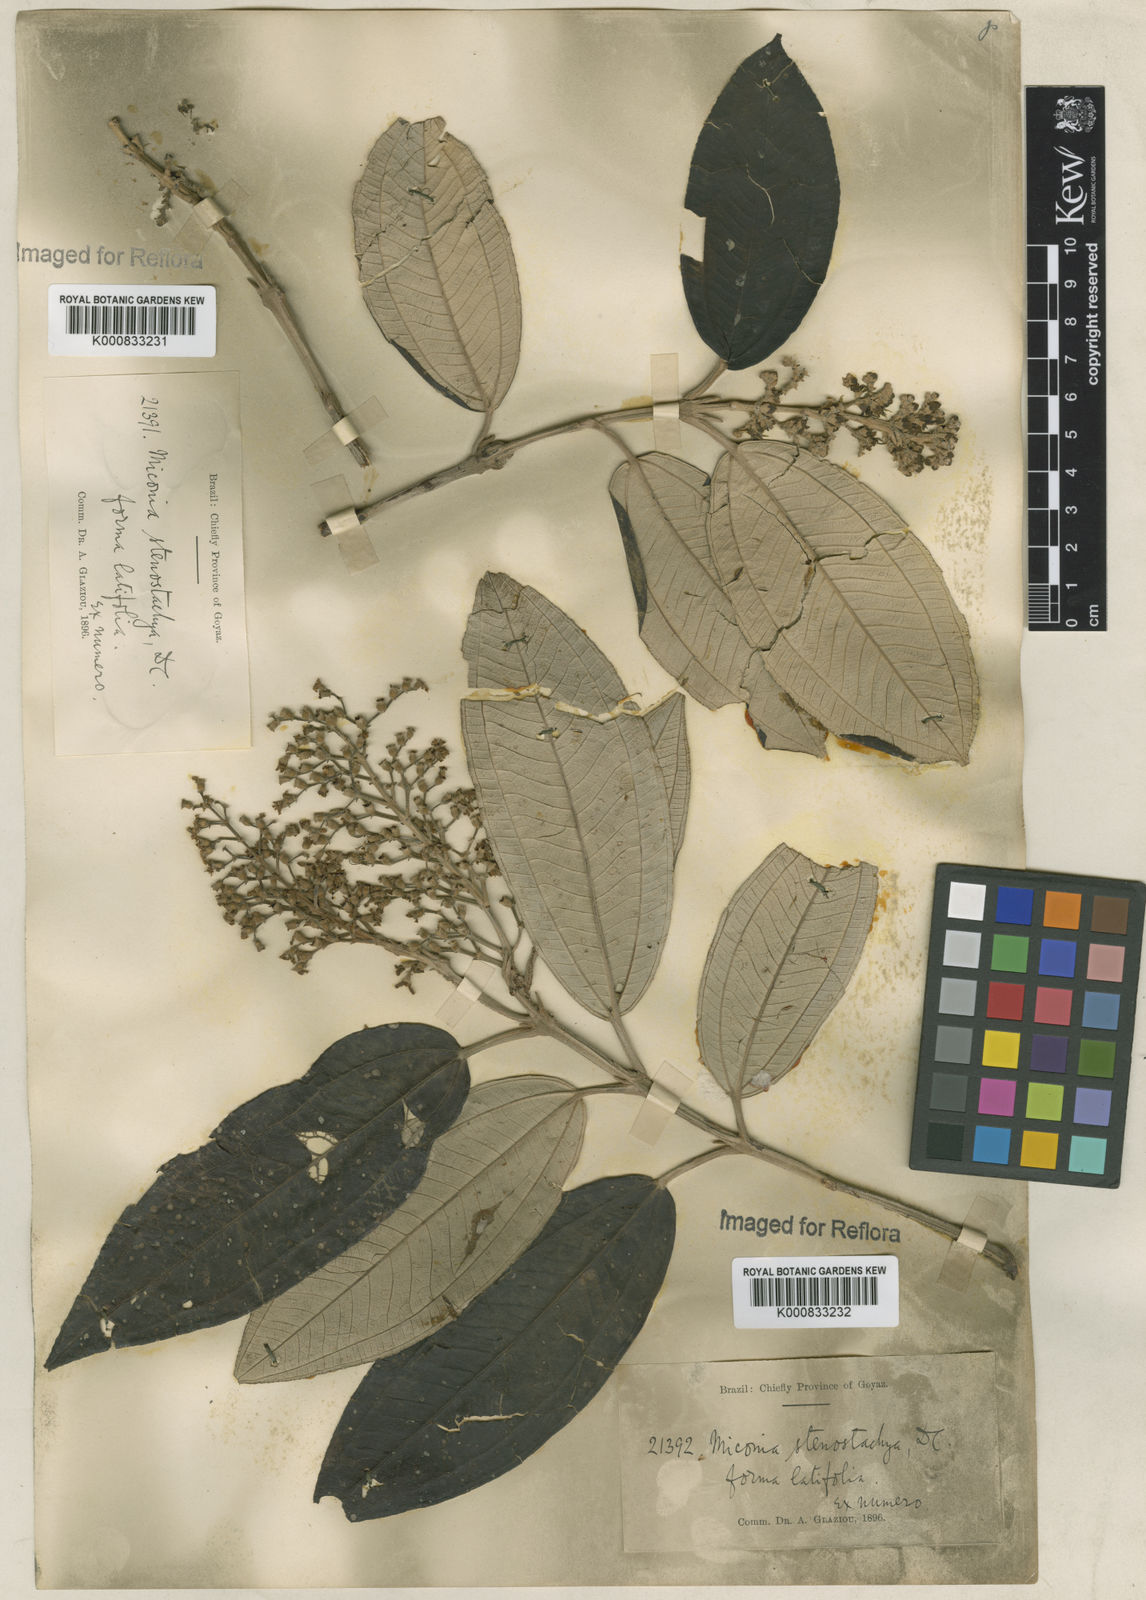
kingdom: Plantae
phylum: Tracheophyta
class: Magnoliopsida
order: Myrtales
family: Melastomataceae
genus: Miconia
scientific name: Miconia stenostachya
